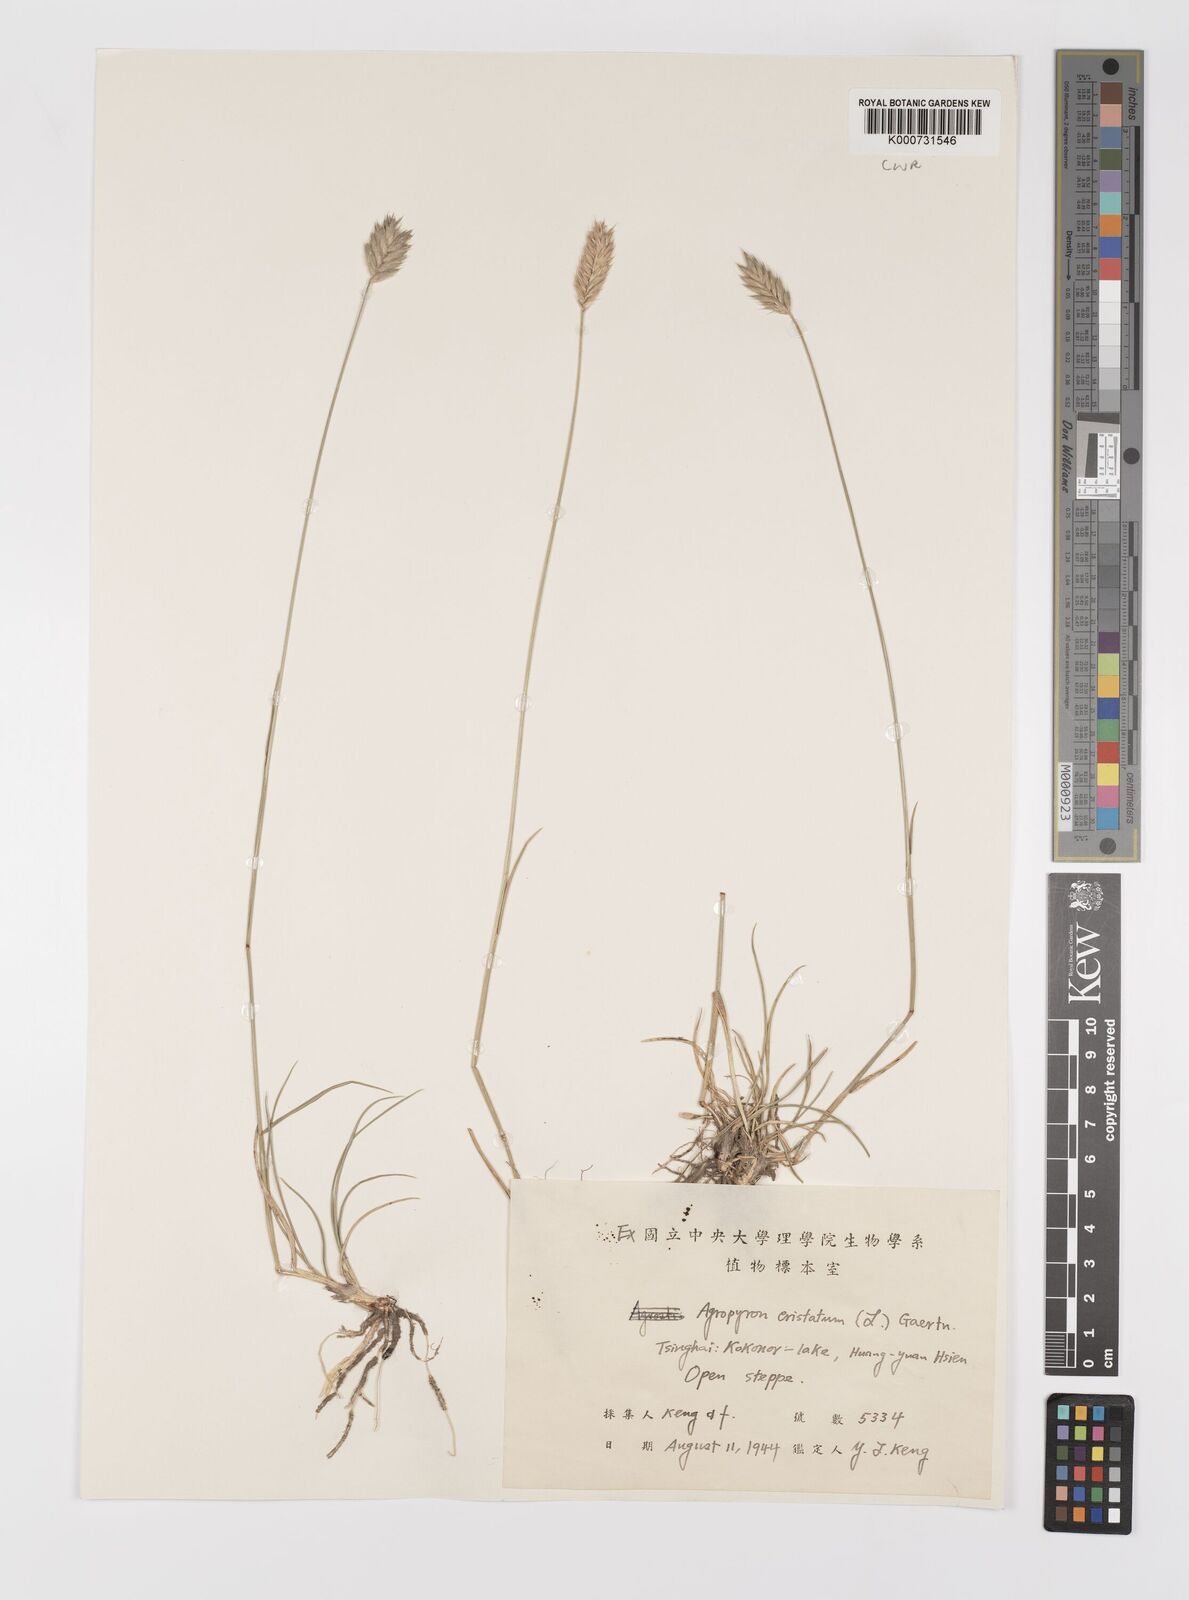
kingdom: Plantae
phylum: Tracheophyta
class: Liliopsida
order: Poales
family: Poaceae
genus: Agropyron
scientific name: Agropyron cristatum
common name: Crested wheatgrass
